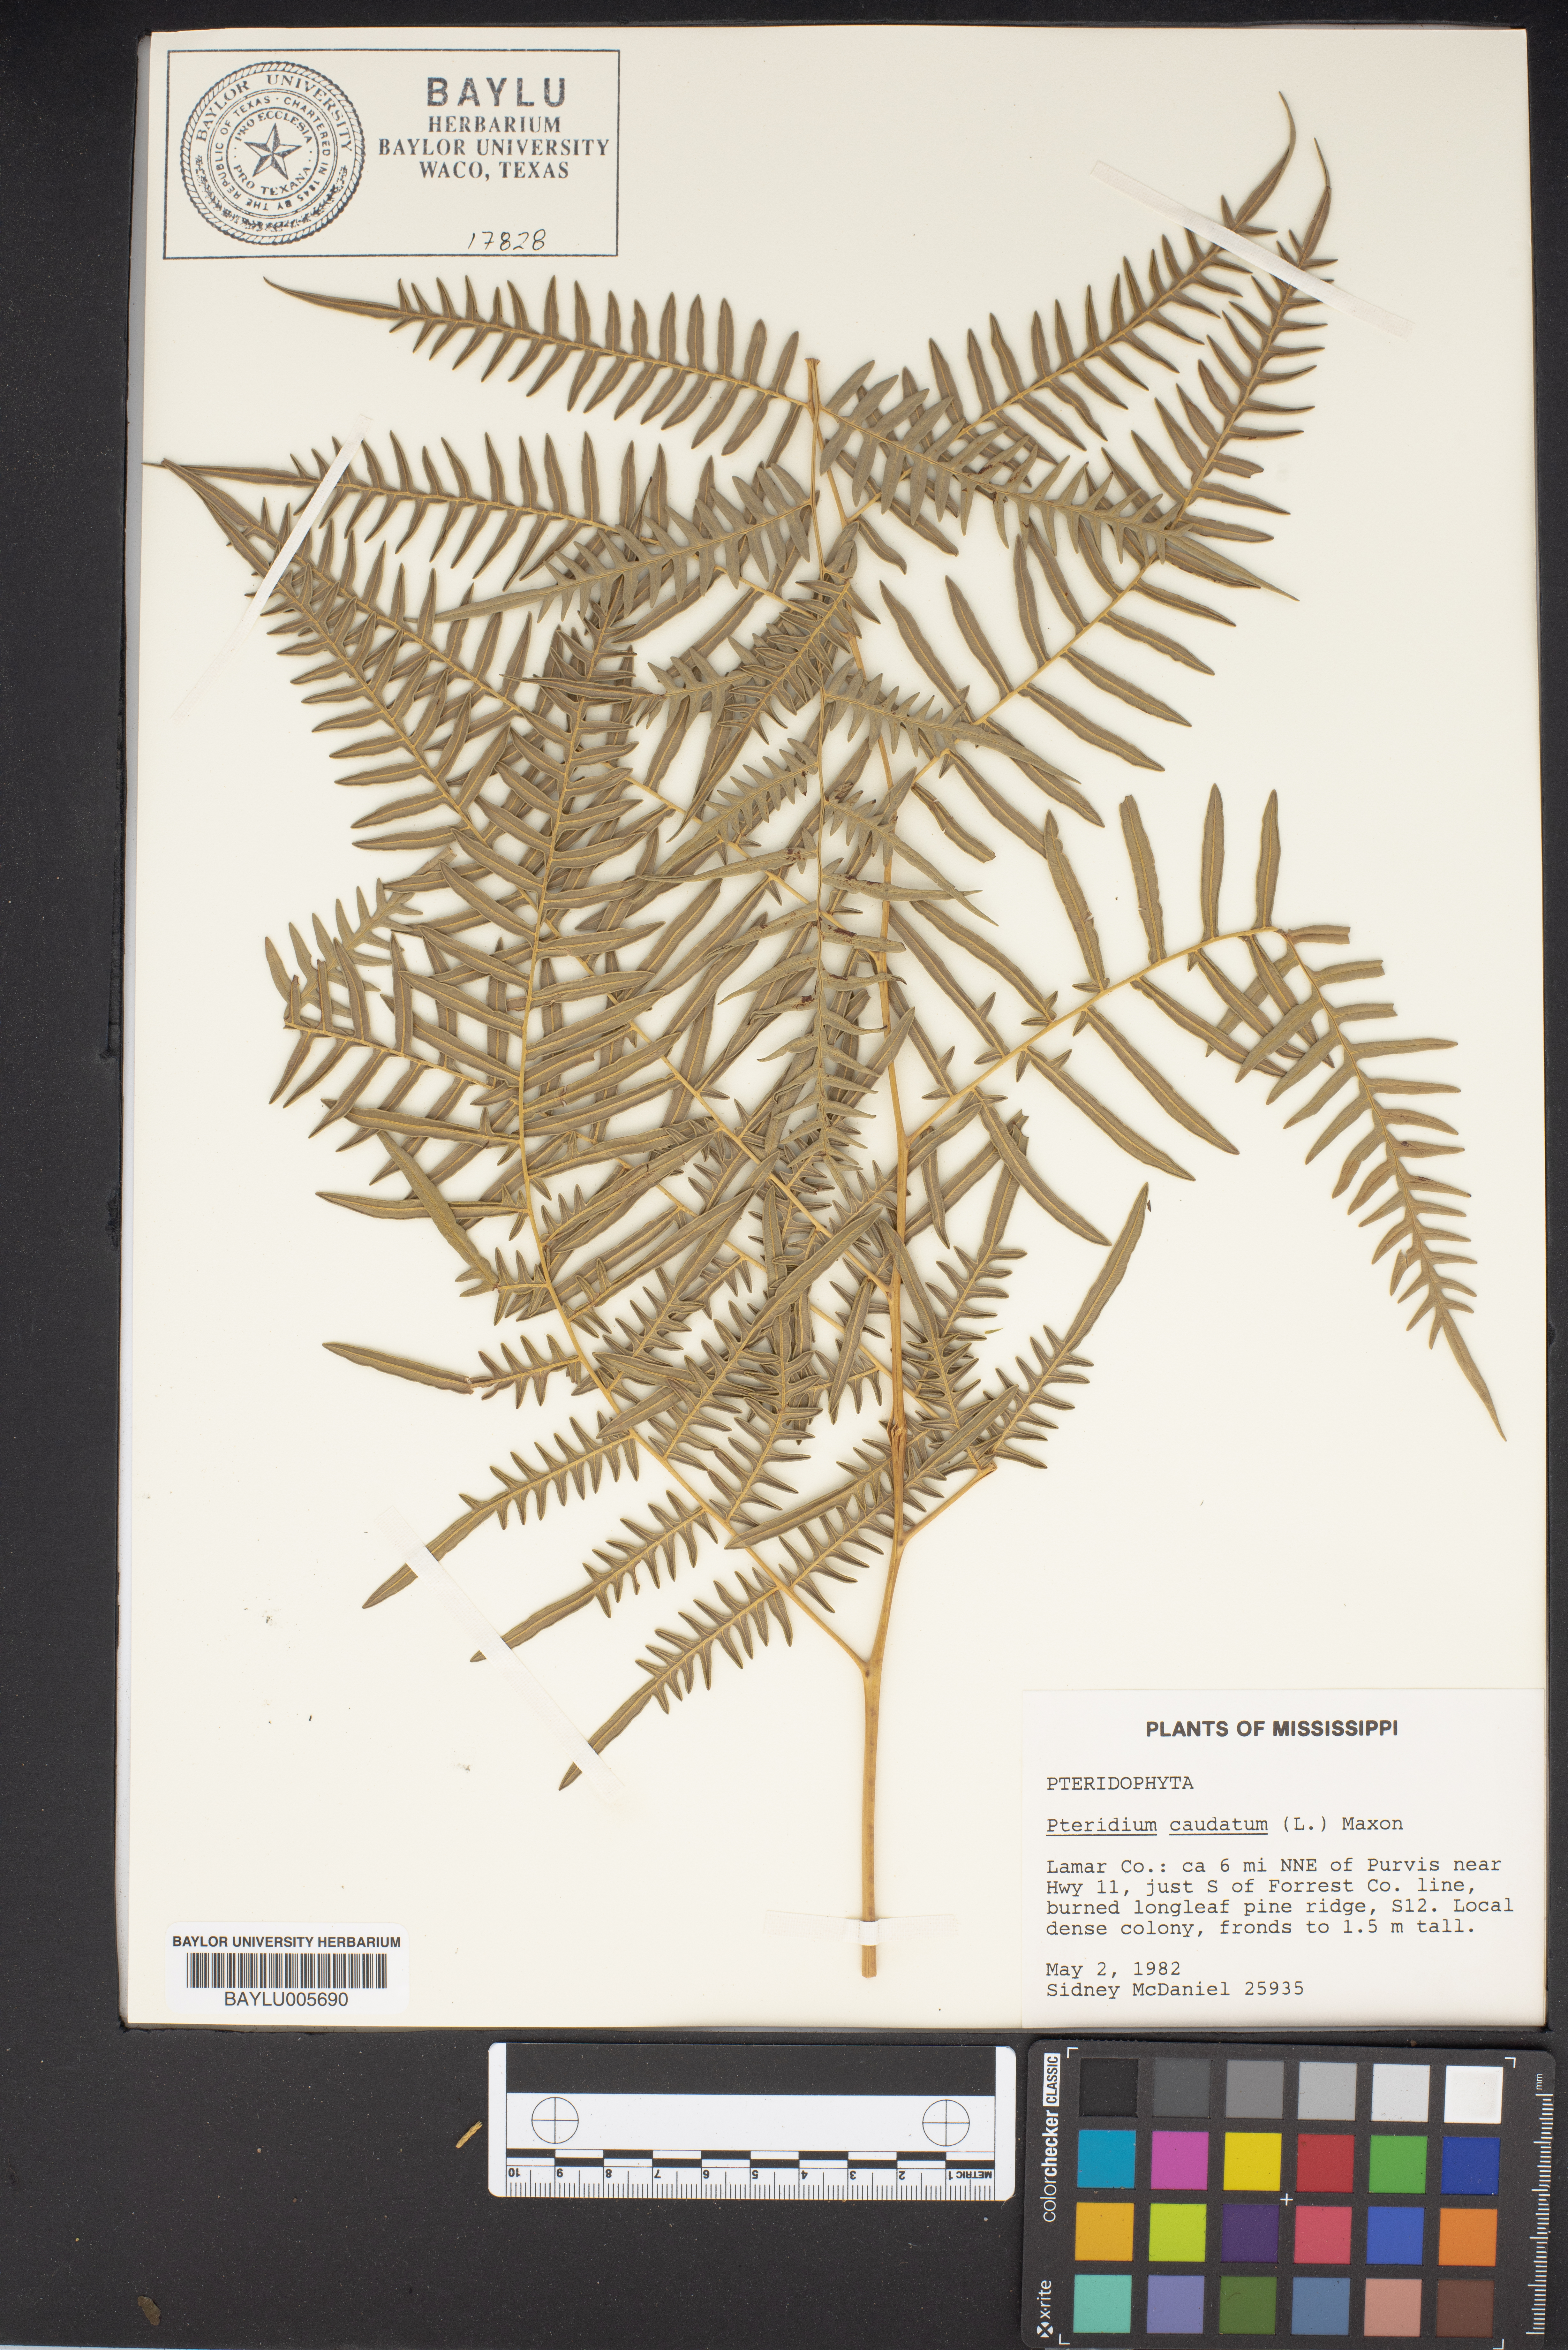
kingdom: Plantae
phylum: Tracheophyta
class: Polypodiopsida
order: Polypodiales
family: Dennstaedtiaceae
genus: Pteridium
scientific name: Pteridium caudatum
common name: Southern bracken fern
